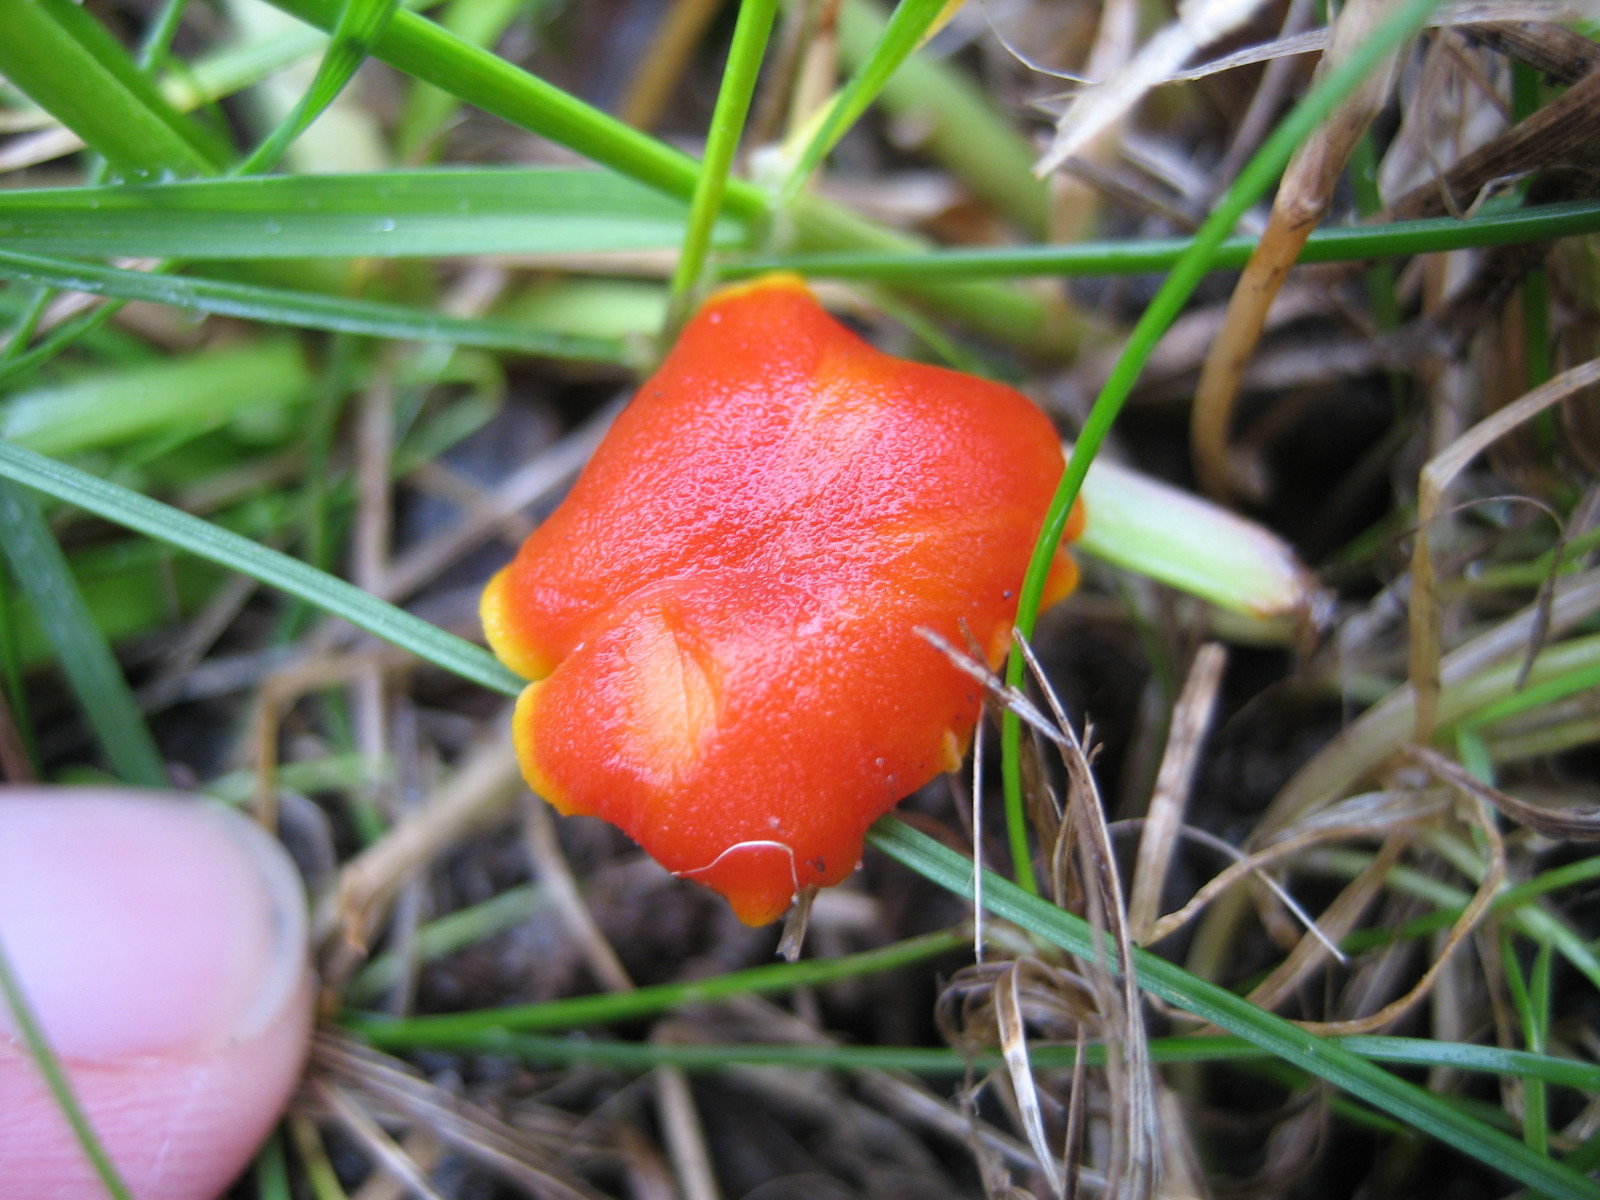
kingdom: Fungi
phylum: Basidiomycota
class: Agaricomycetes
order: Agaricales
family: Hygrophoraceae
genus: Hygrocybe
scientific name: Hygrocybe
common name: vokshat
